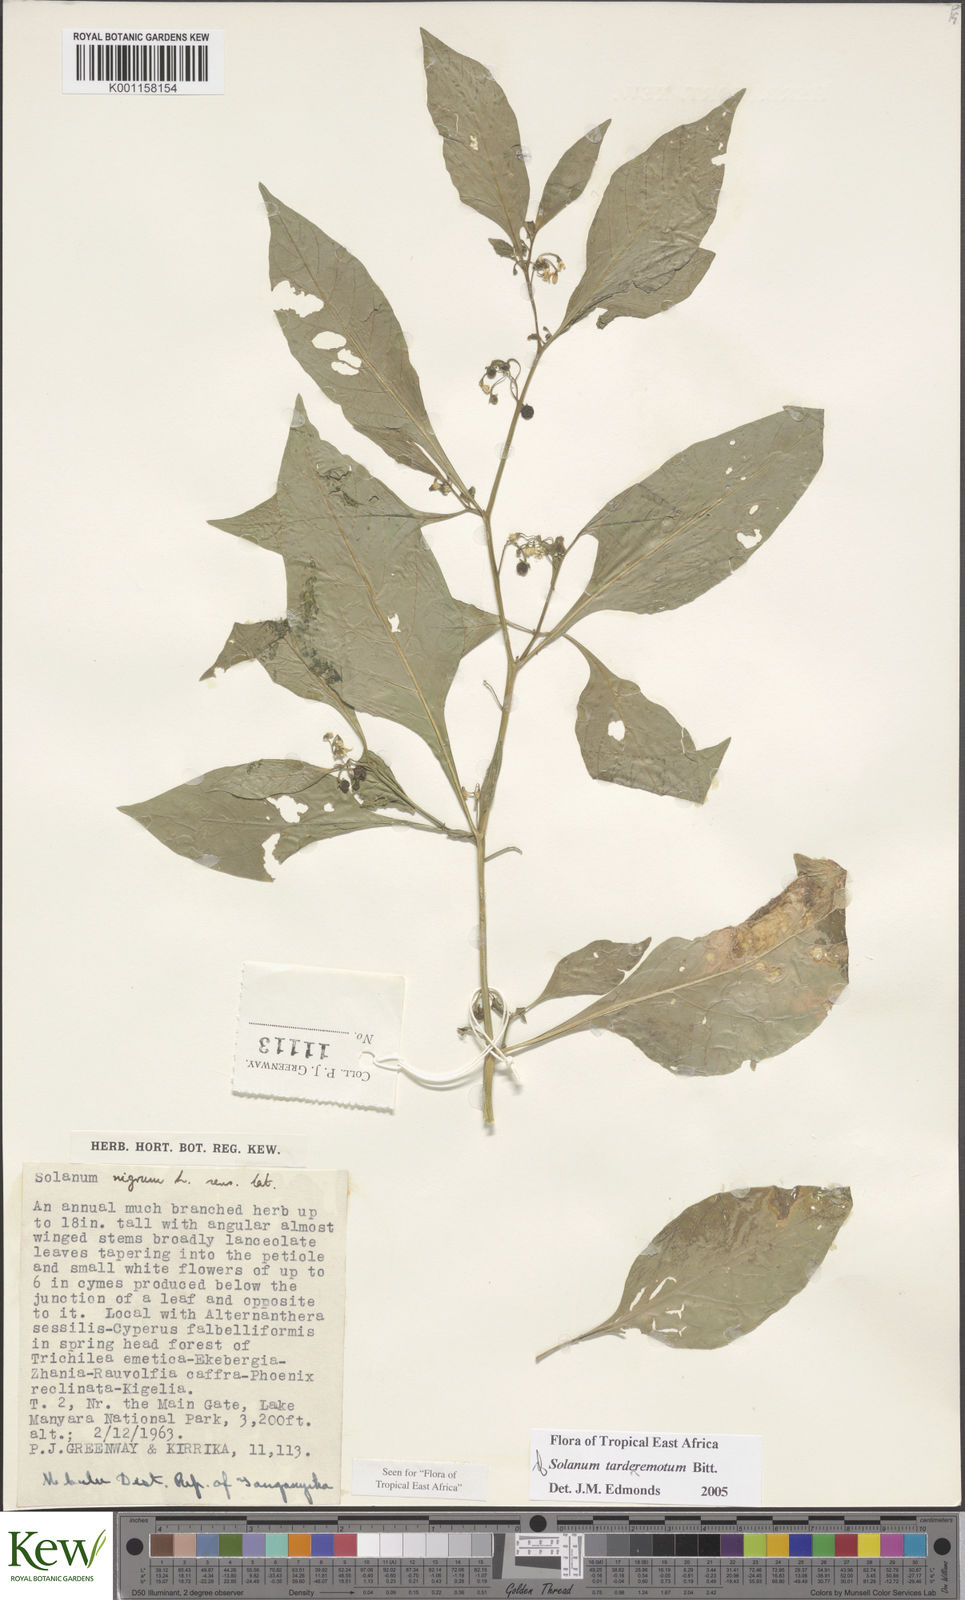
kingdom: Plantae
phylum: Tracheophyta
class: Magnoliopsida
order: Solanales
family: Solanaceae
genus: Solanum
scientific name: Solanum tarderemotum
